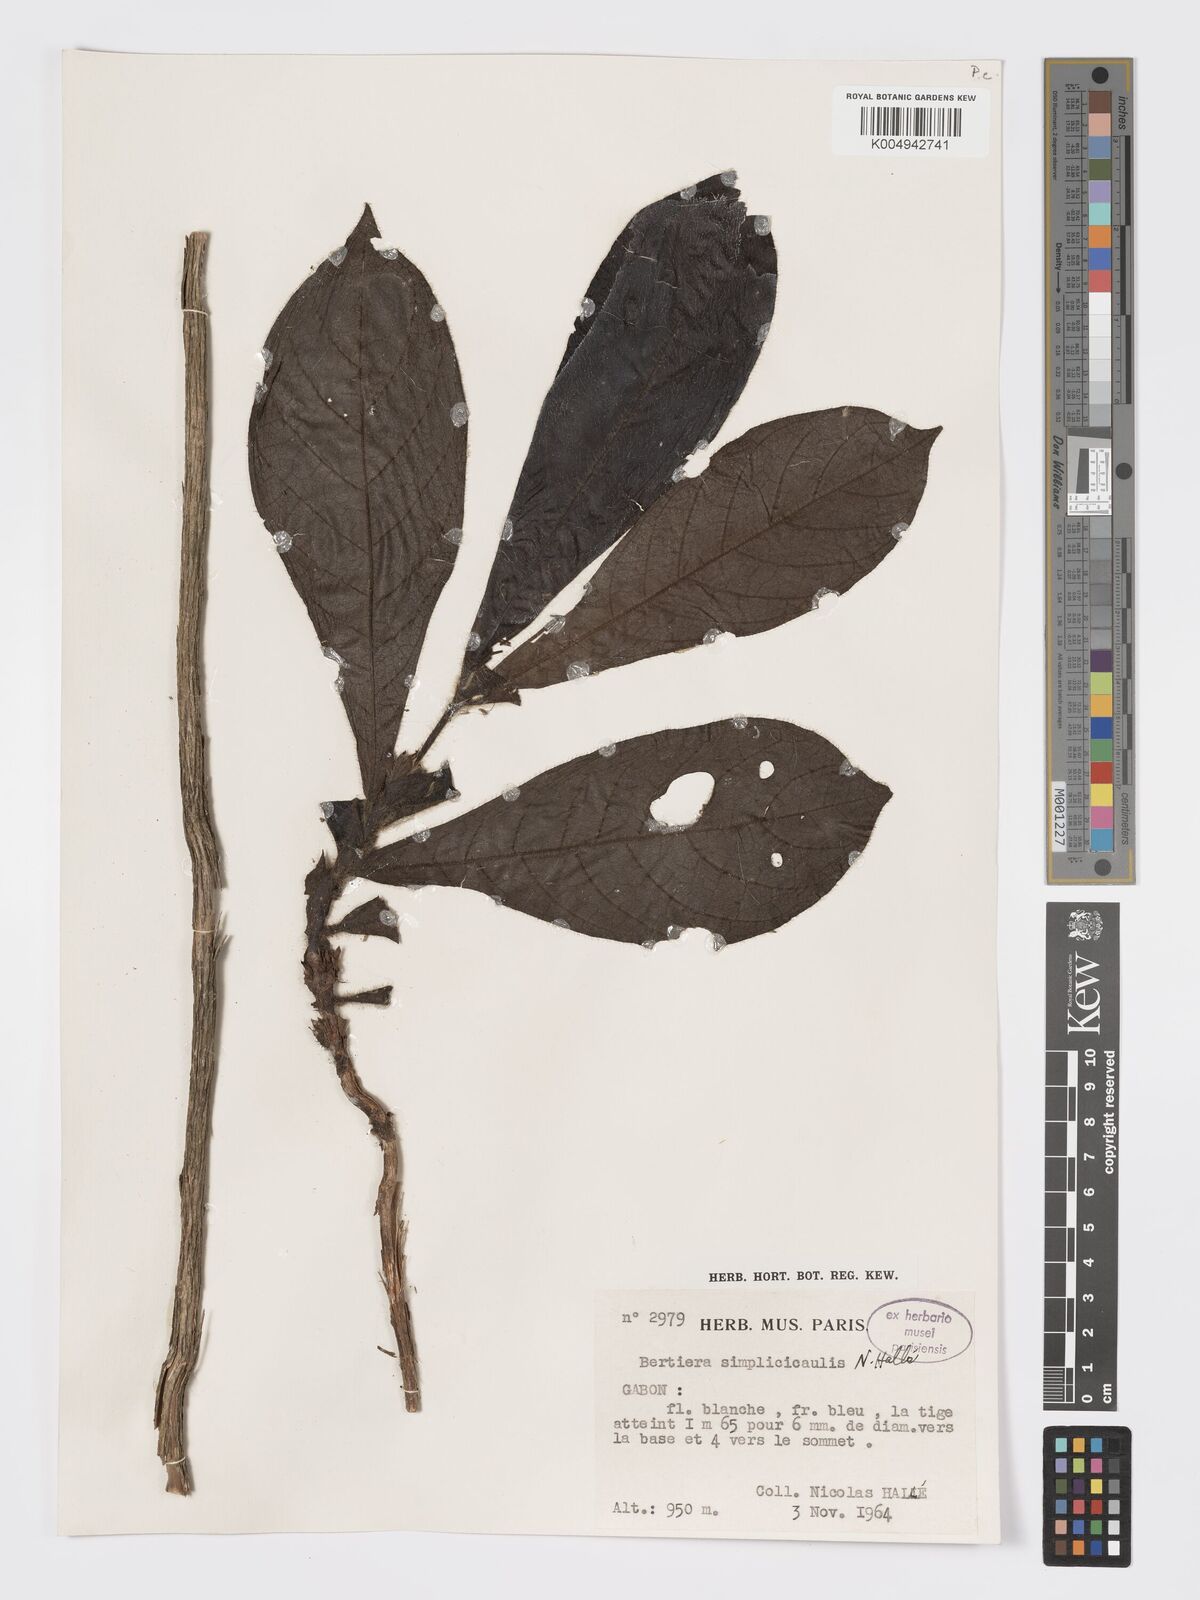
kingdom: Plantae
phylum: Tracheophyta
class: Magnoliopsida
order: Gentianales
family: Rubiaceae
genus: Bertiera
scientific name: Bertiera bicarpellata
